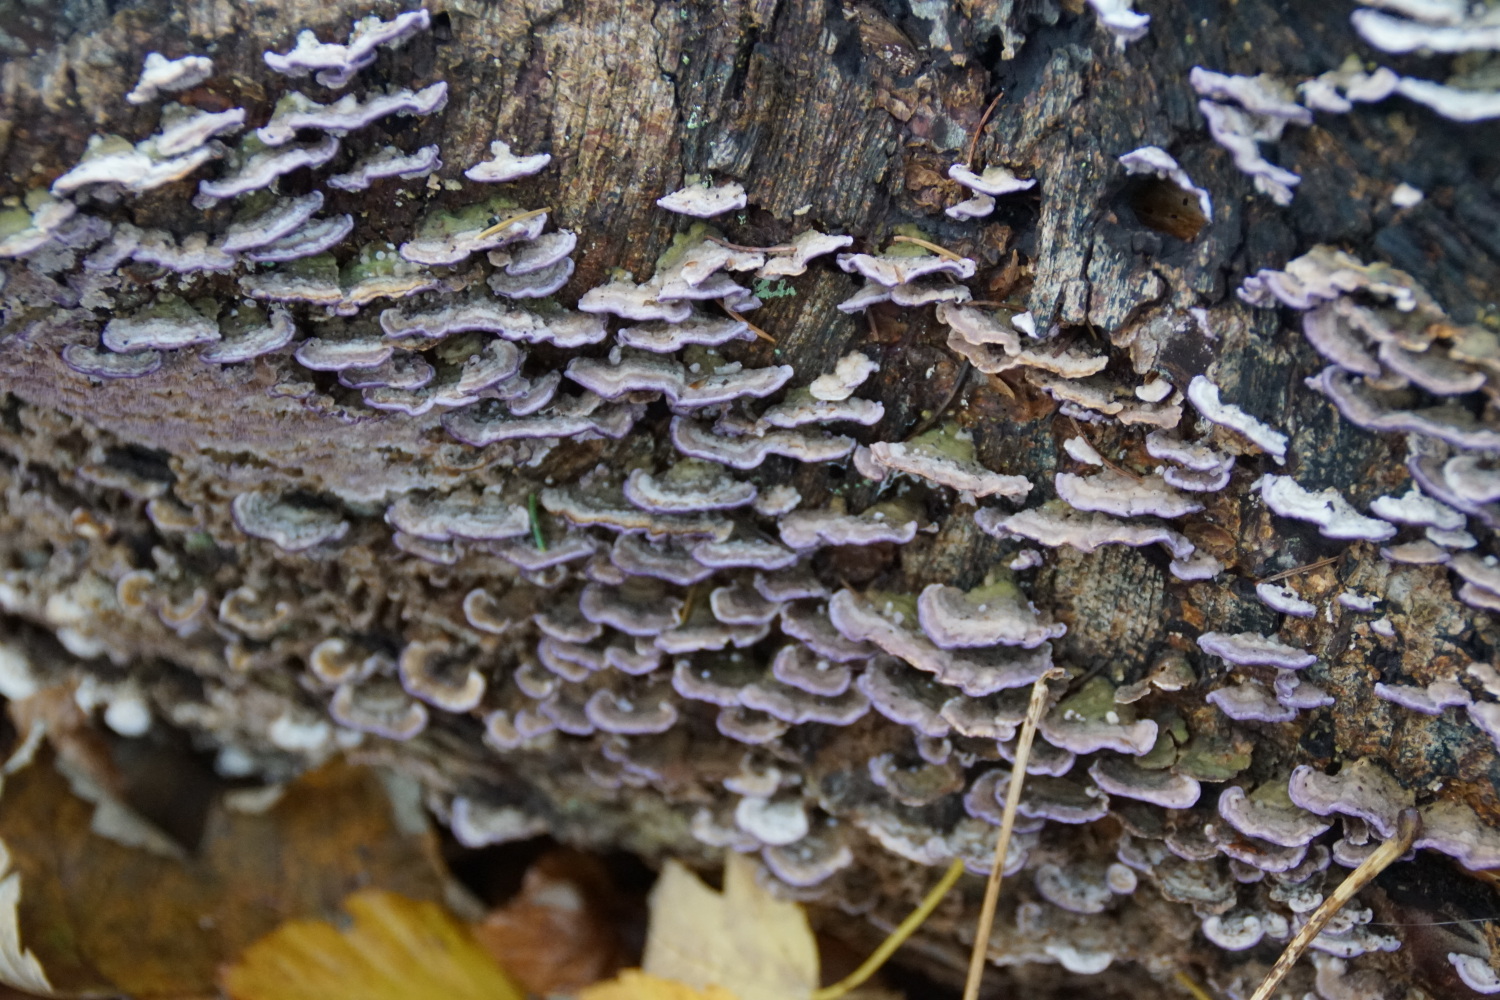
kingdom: Fungi
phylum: Basidiomycota
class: Agaricomycetes
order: Hymenochaetales
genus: Trichaptum
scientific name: Trichaptum abietinum
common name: almindelig violporesvamp
